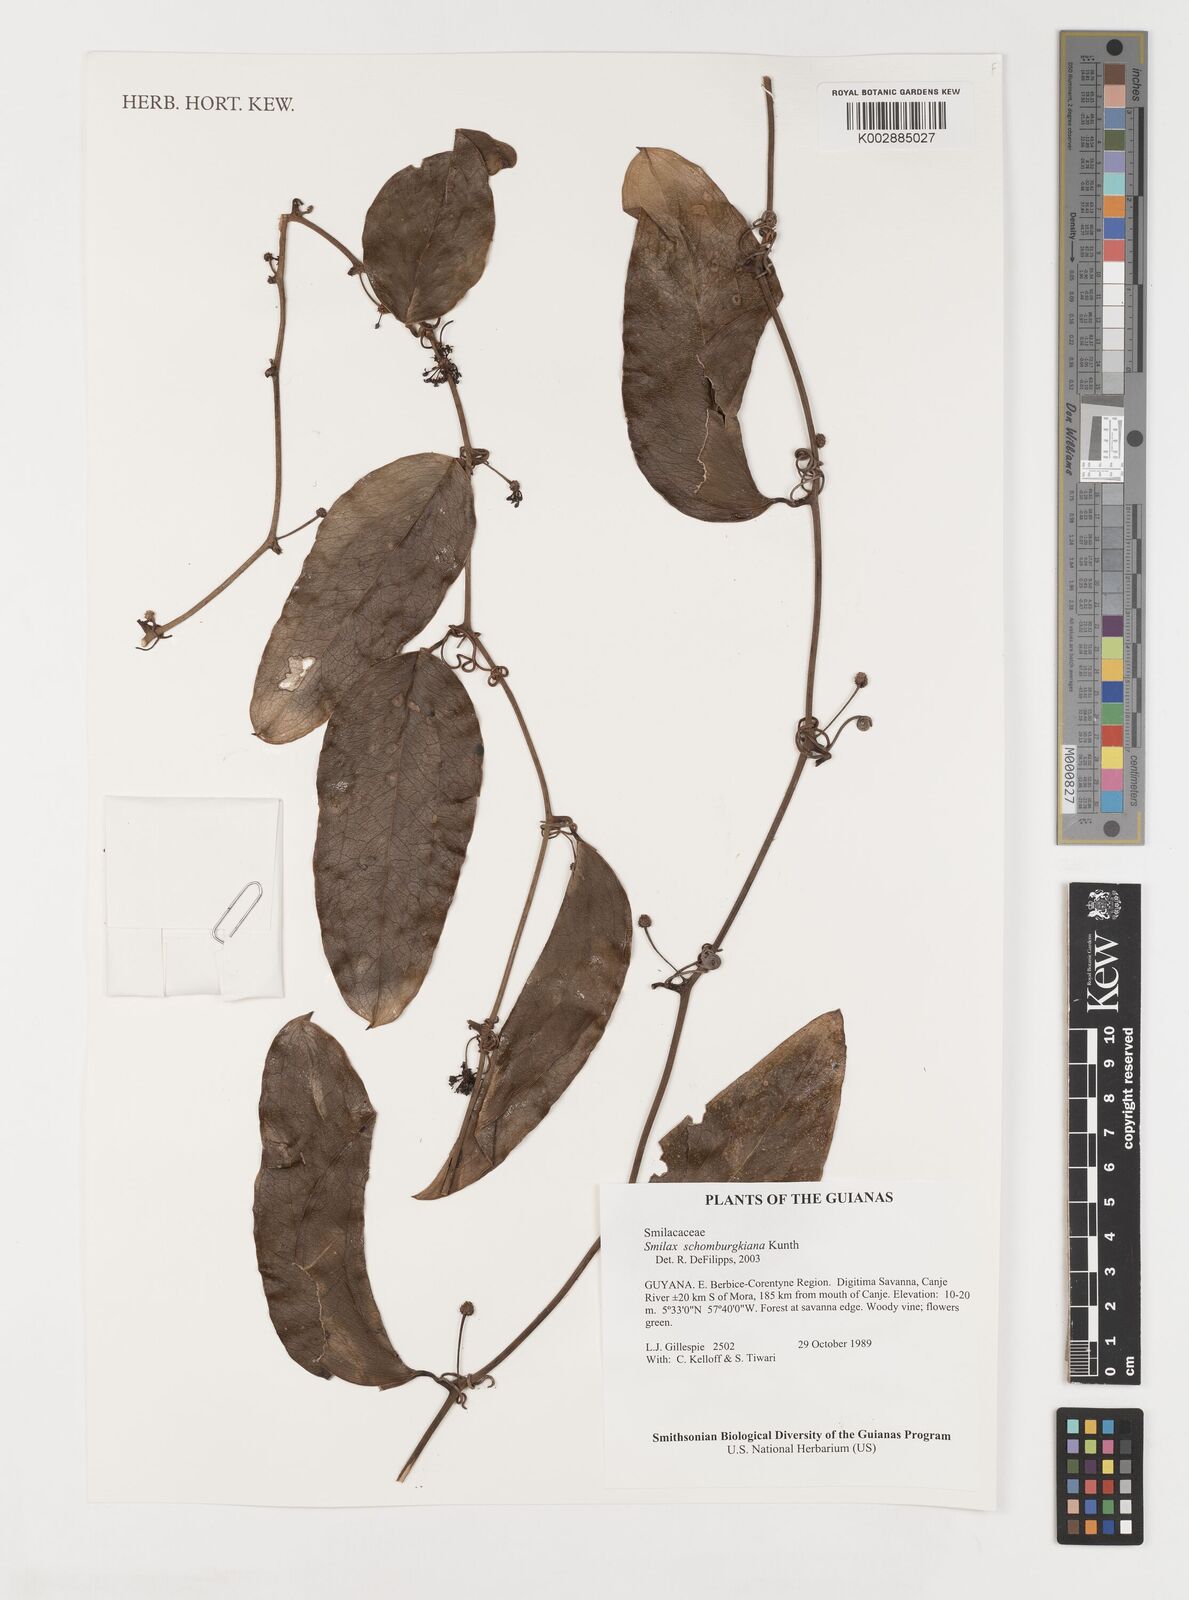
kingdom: Plantae
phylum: Tracheophyta
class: Liliopsida
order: Liliales
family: Smilacaceae
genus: Smilax
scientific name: Smilax schomburgkiana
